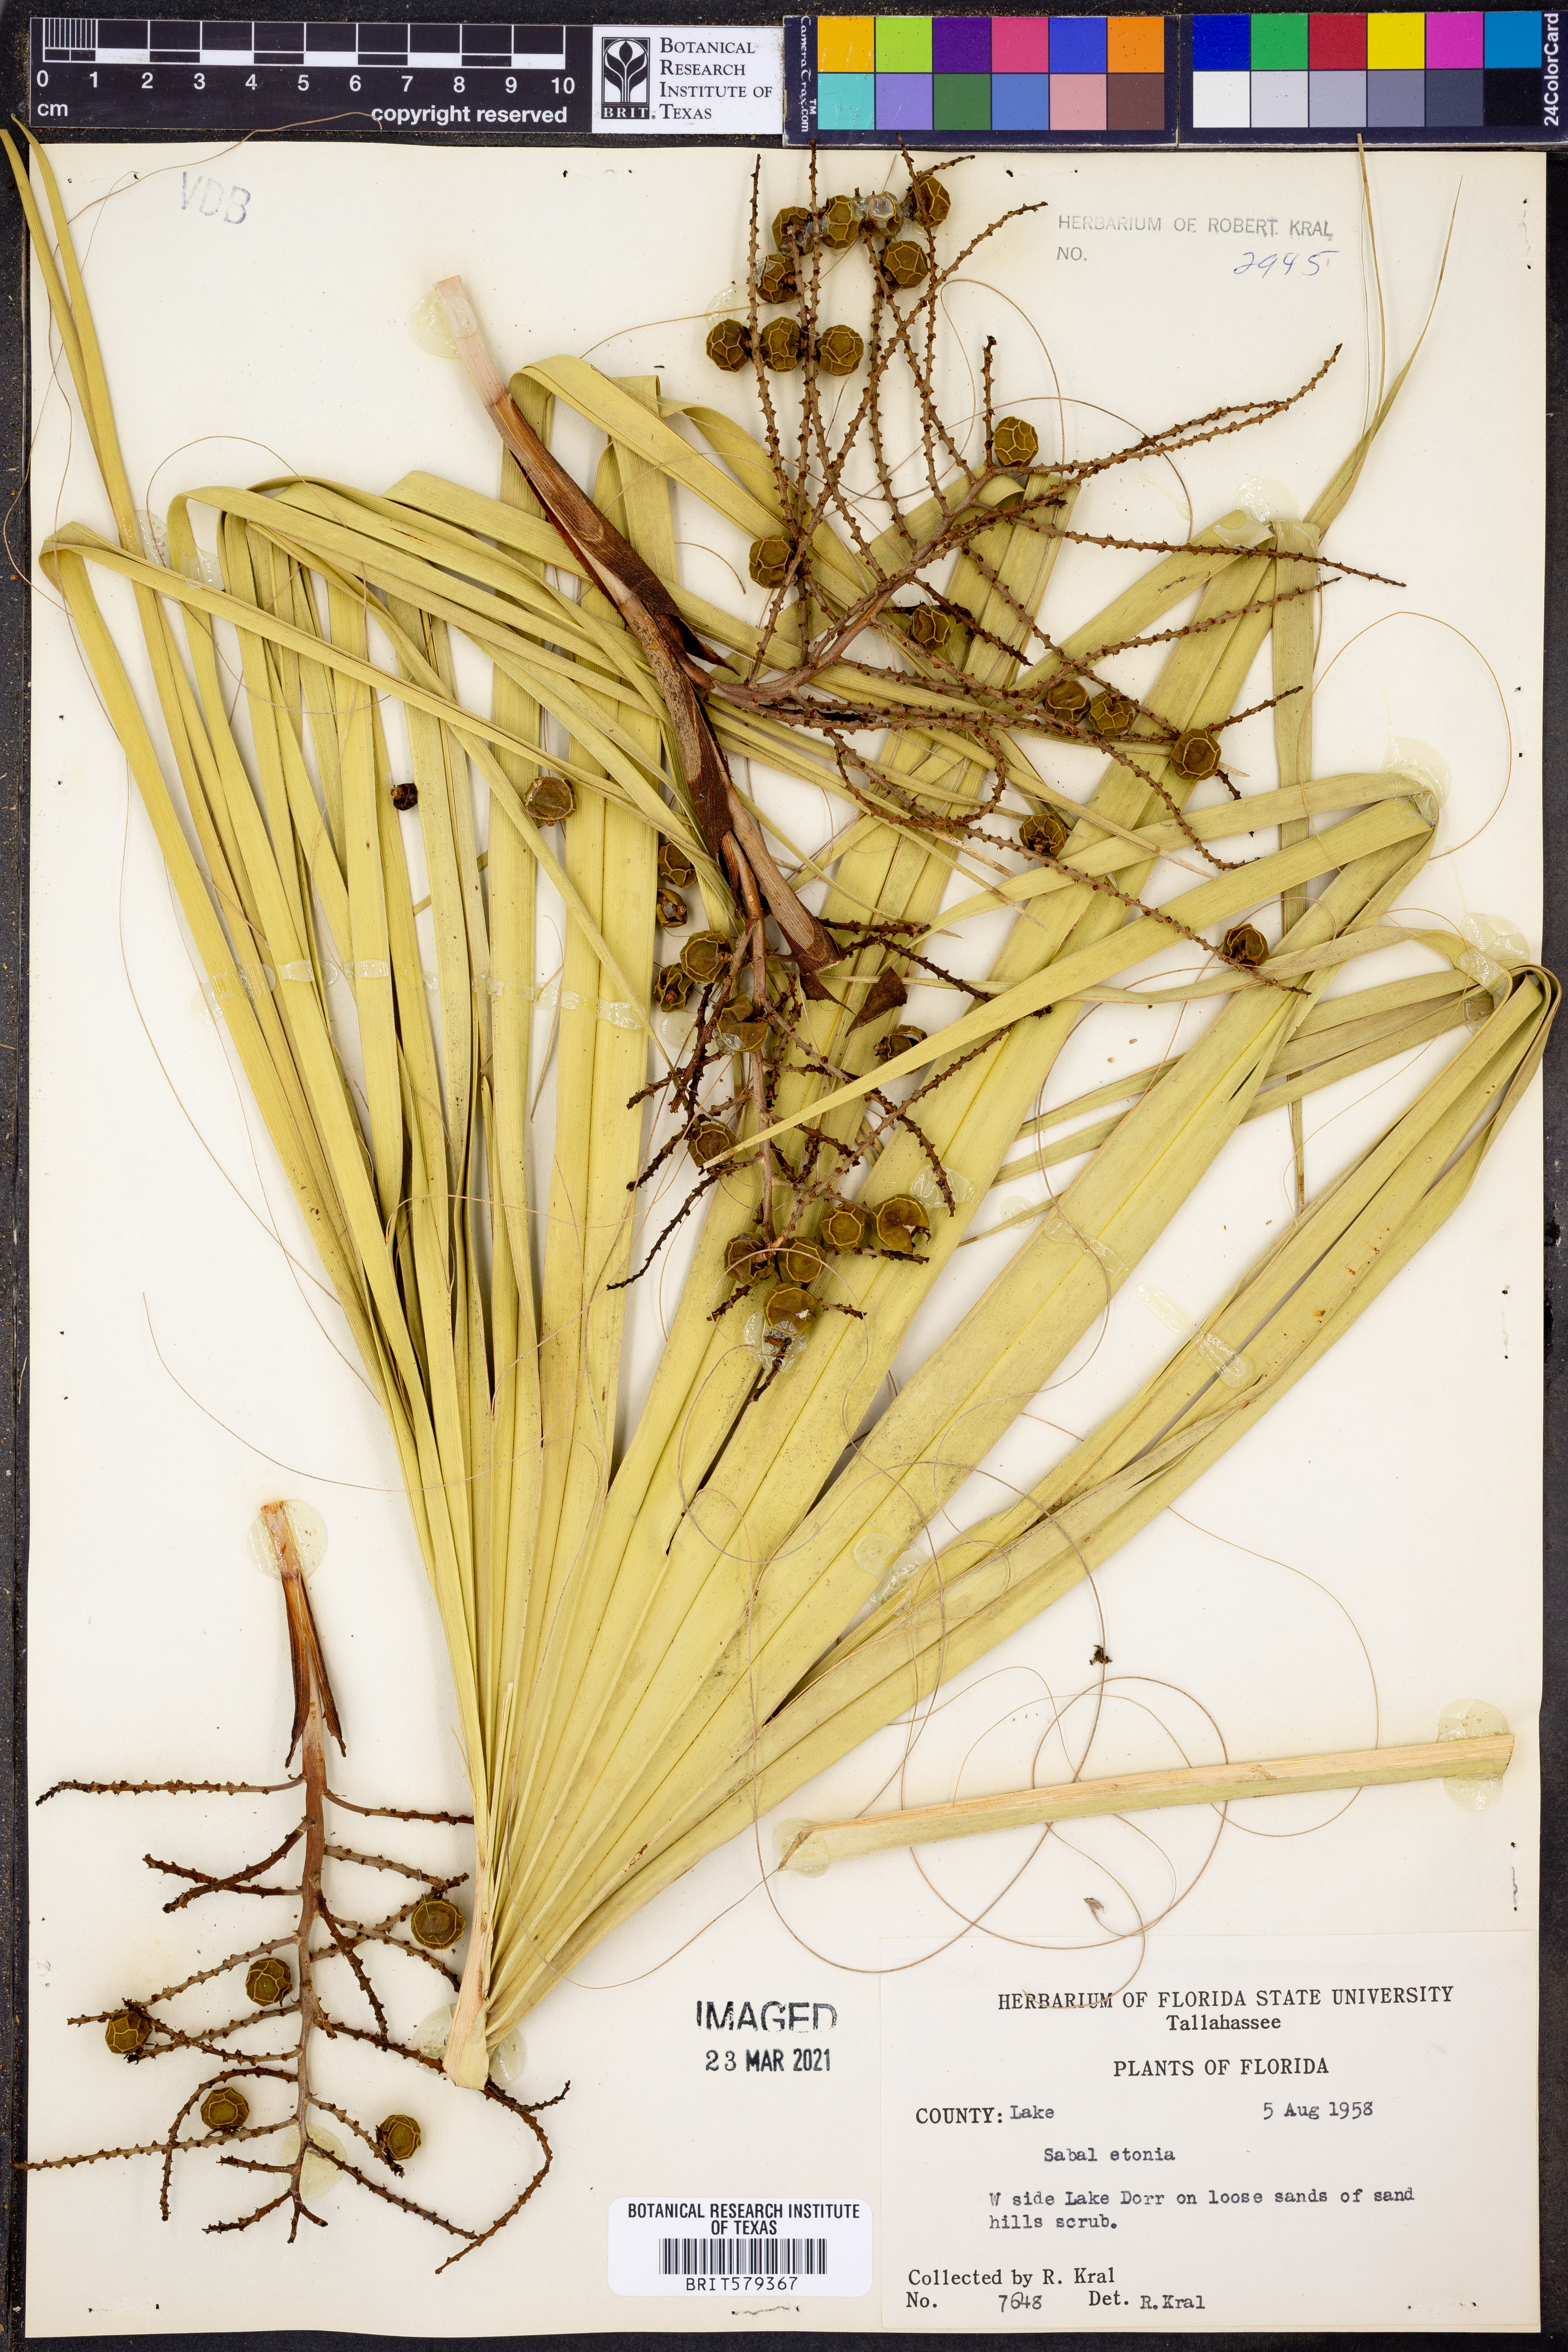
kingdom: Plantae
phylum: Tracheophyta
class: Liliopsida
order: Arecales
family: Arecaceae
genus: Sabal
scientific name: Sabal etonia
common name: Dwarf palmetto
